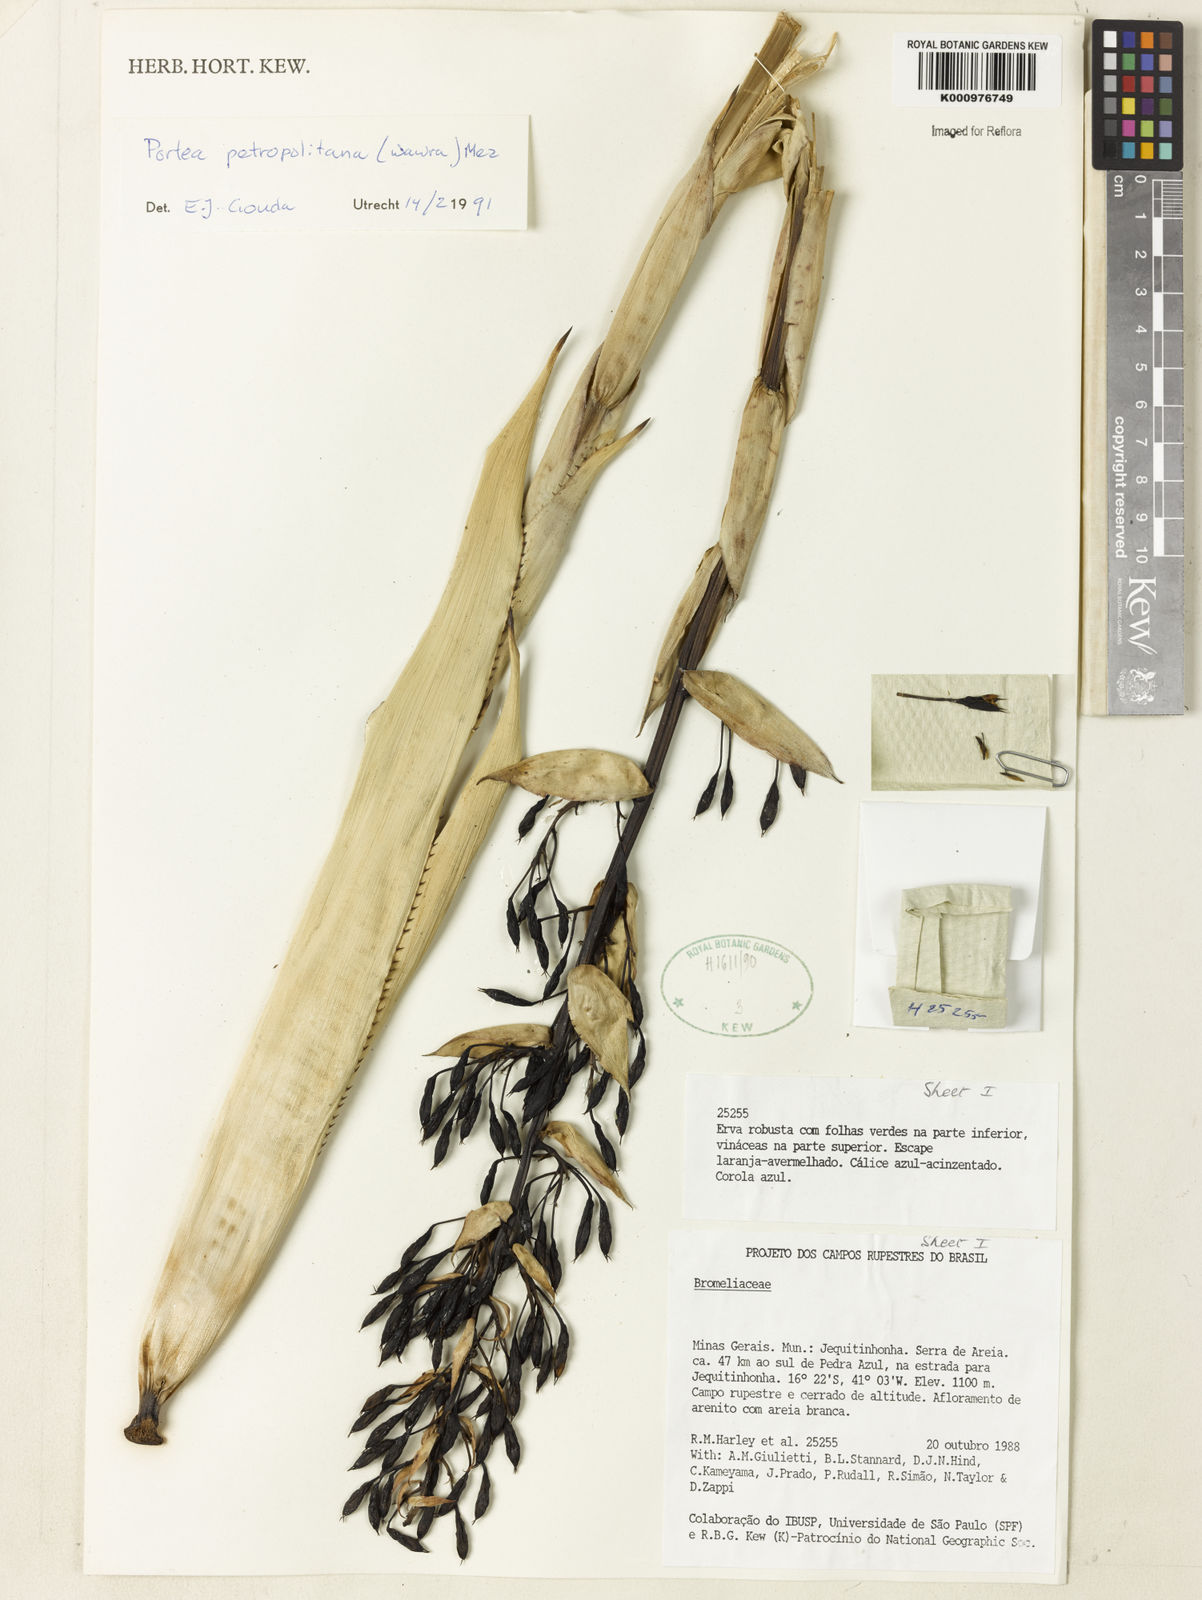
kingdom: Plantae
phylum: Tracheophyta
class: Liliopsida
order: Poales
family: Bromeliaceae
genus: Portea
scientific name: Portea petropolitana
